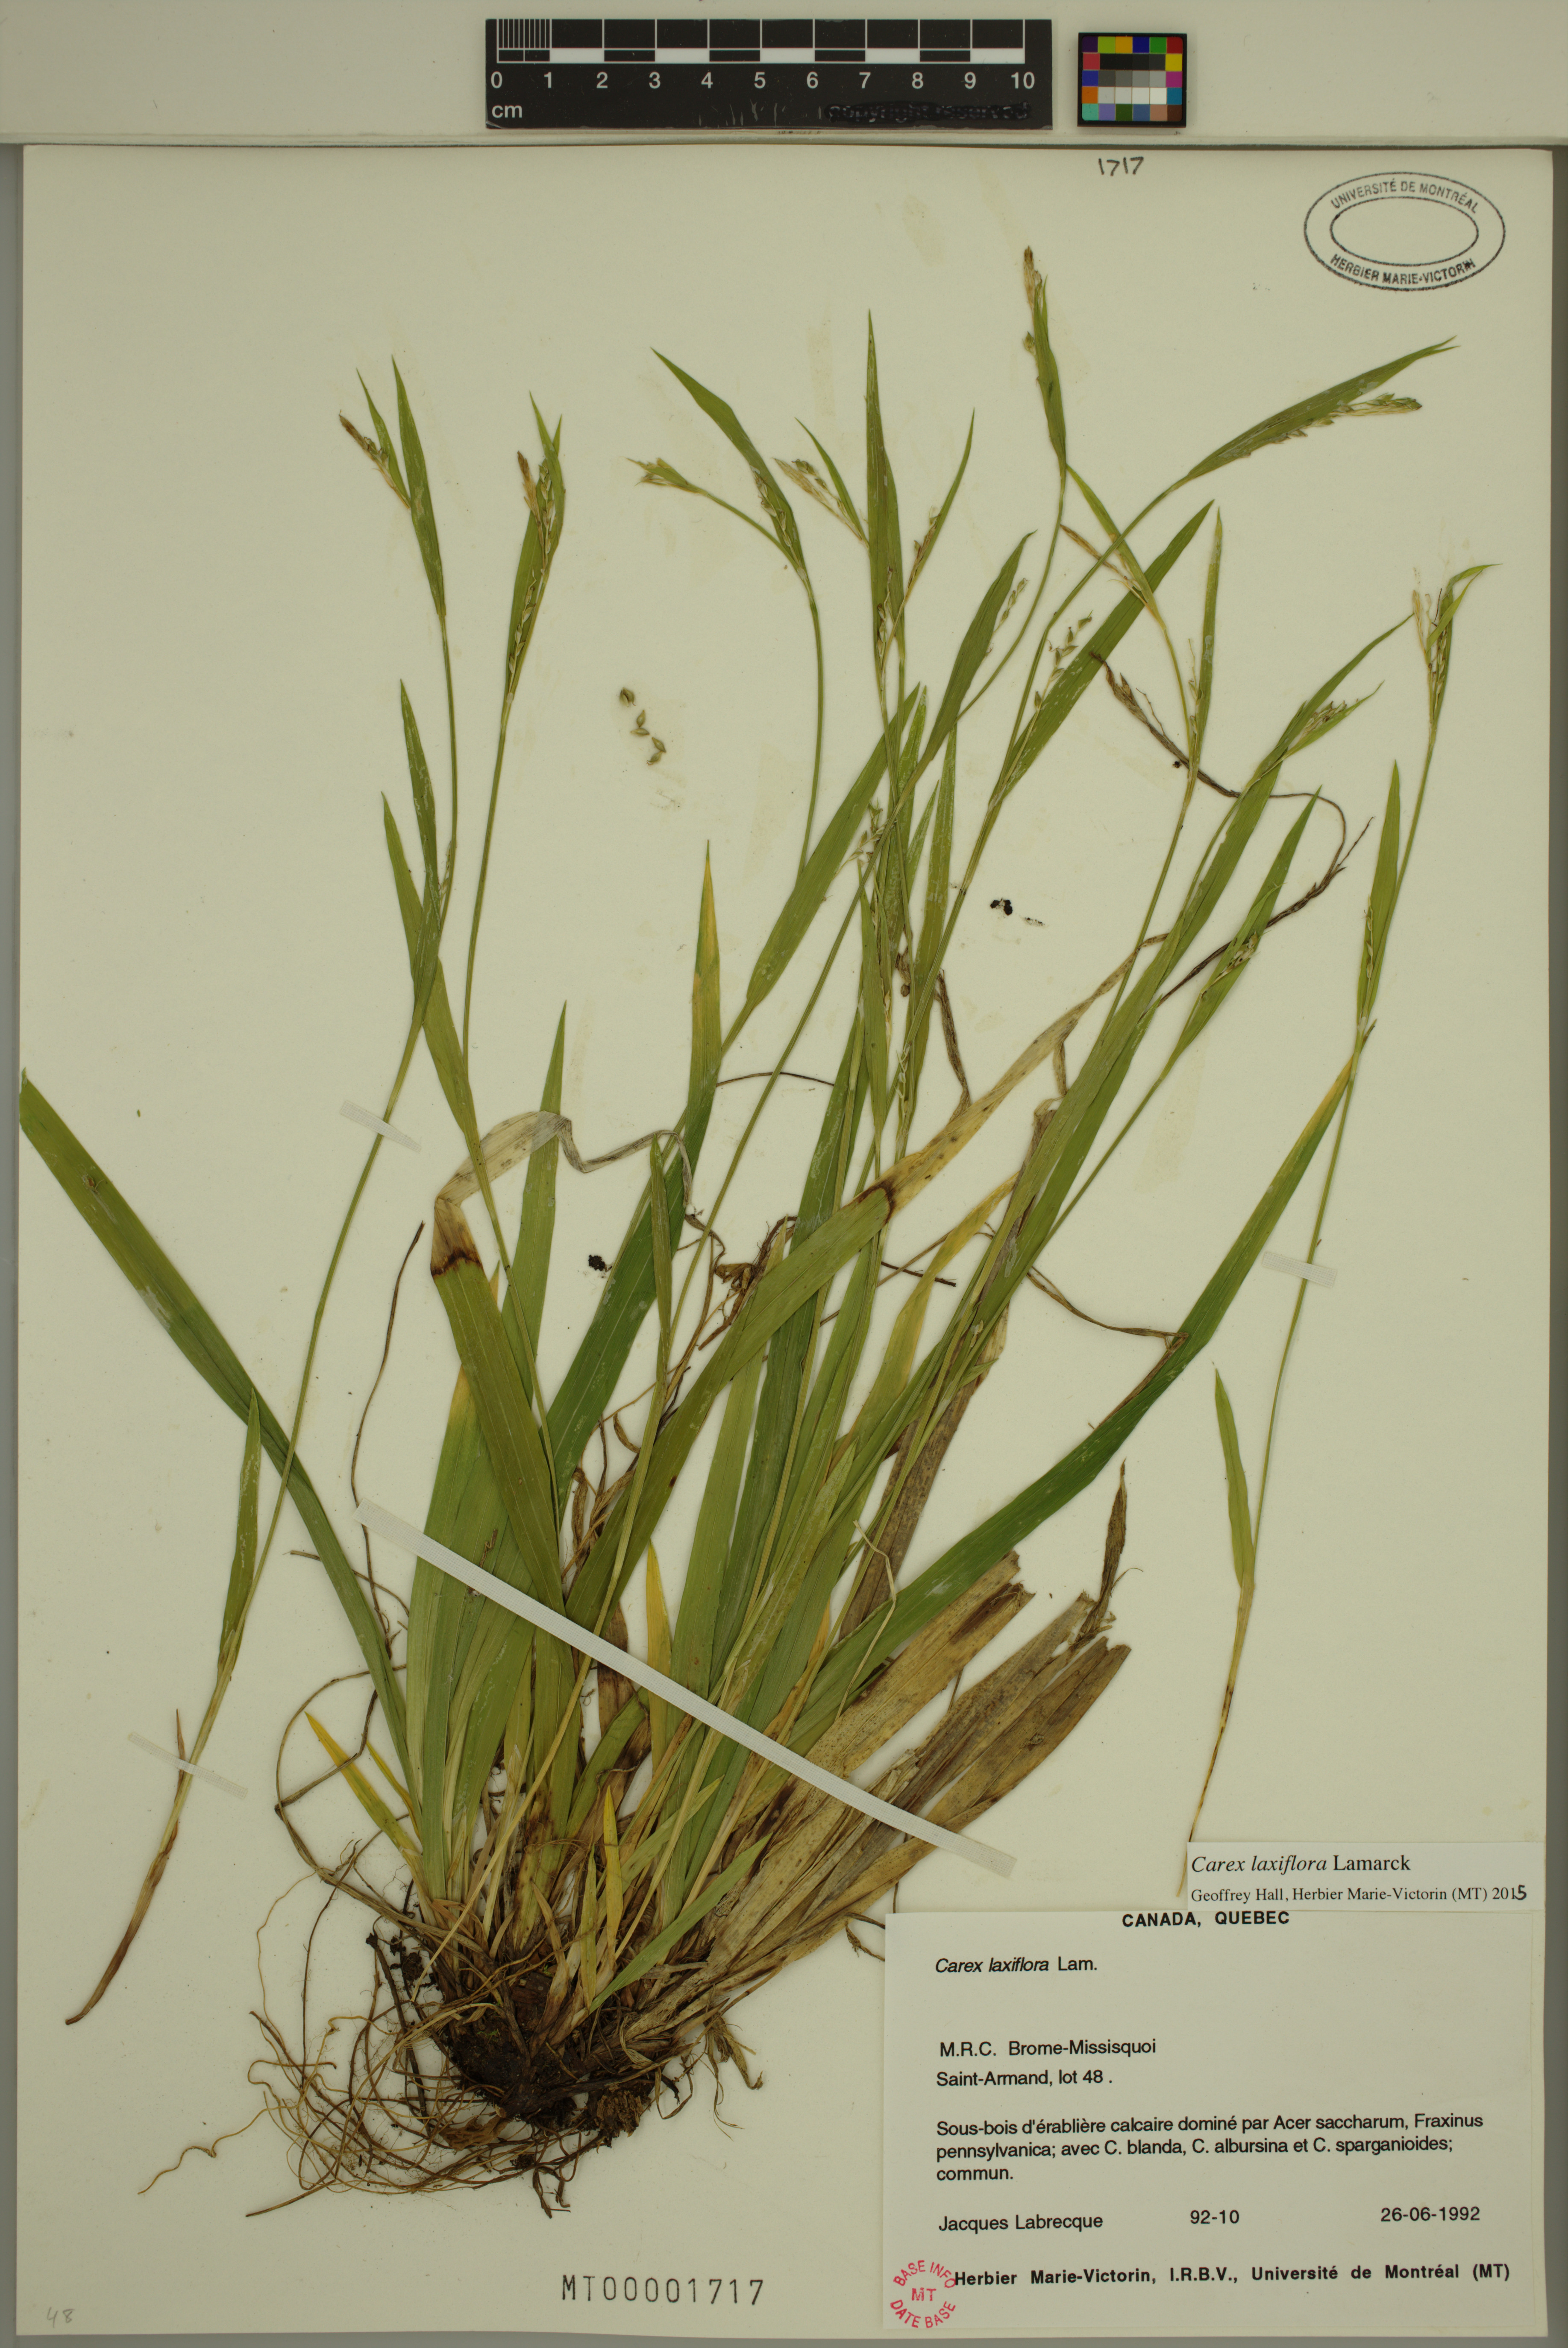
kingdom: Plantae
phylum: Tracheophyta
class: Liliopsida
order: Poales
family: Cyperaceae
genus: Carex
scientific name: Carex laxiflora
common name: Beech wood sedge
